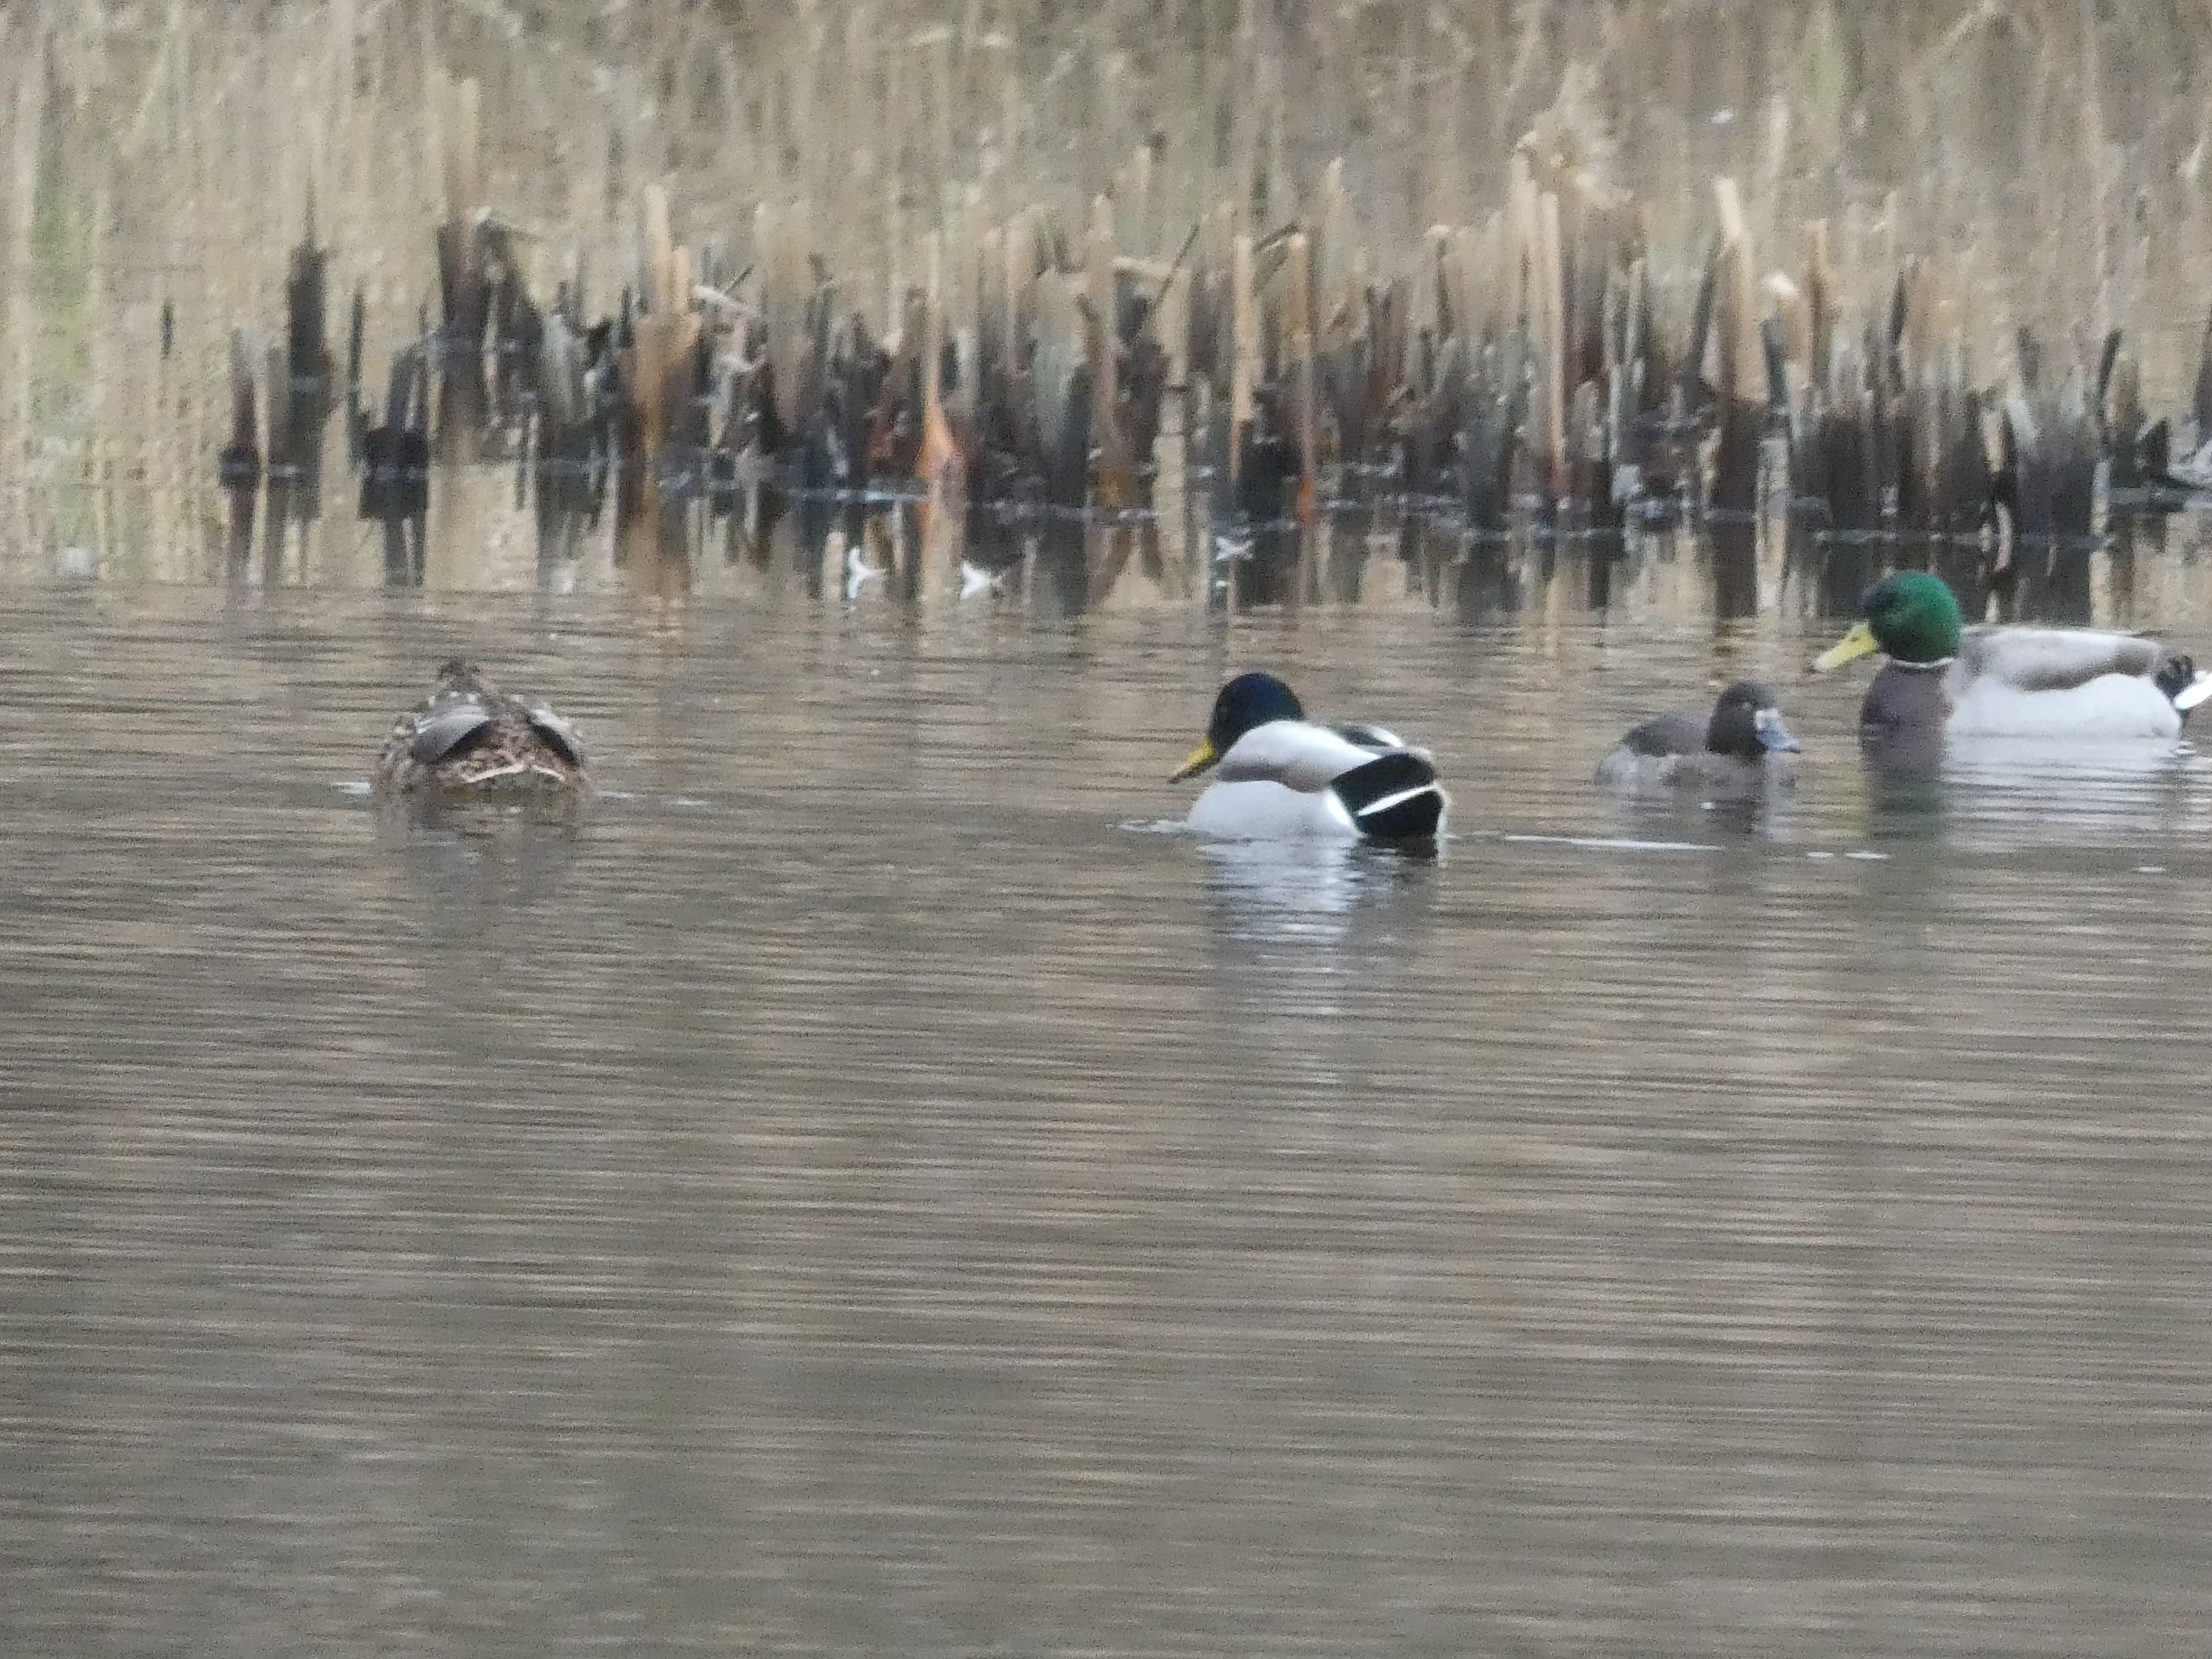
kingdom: Animalia
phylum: Chordata
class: Aves
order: Anseriformes
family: Anatidae
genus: Aythya
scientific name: Aythya fuligula
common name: Troldand
